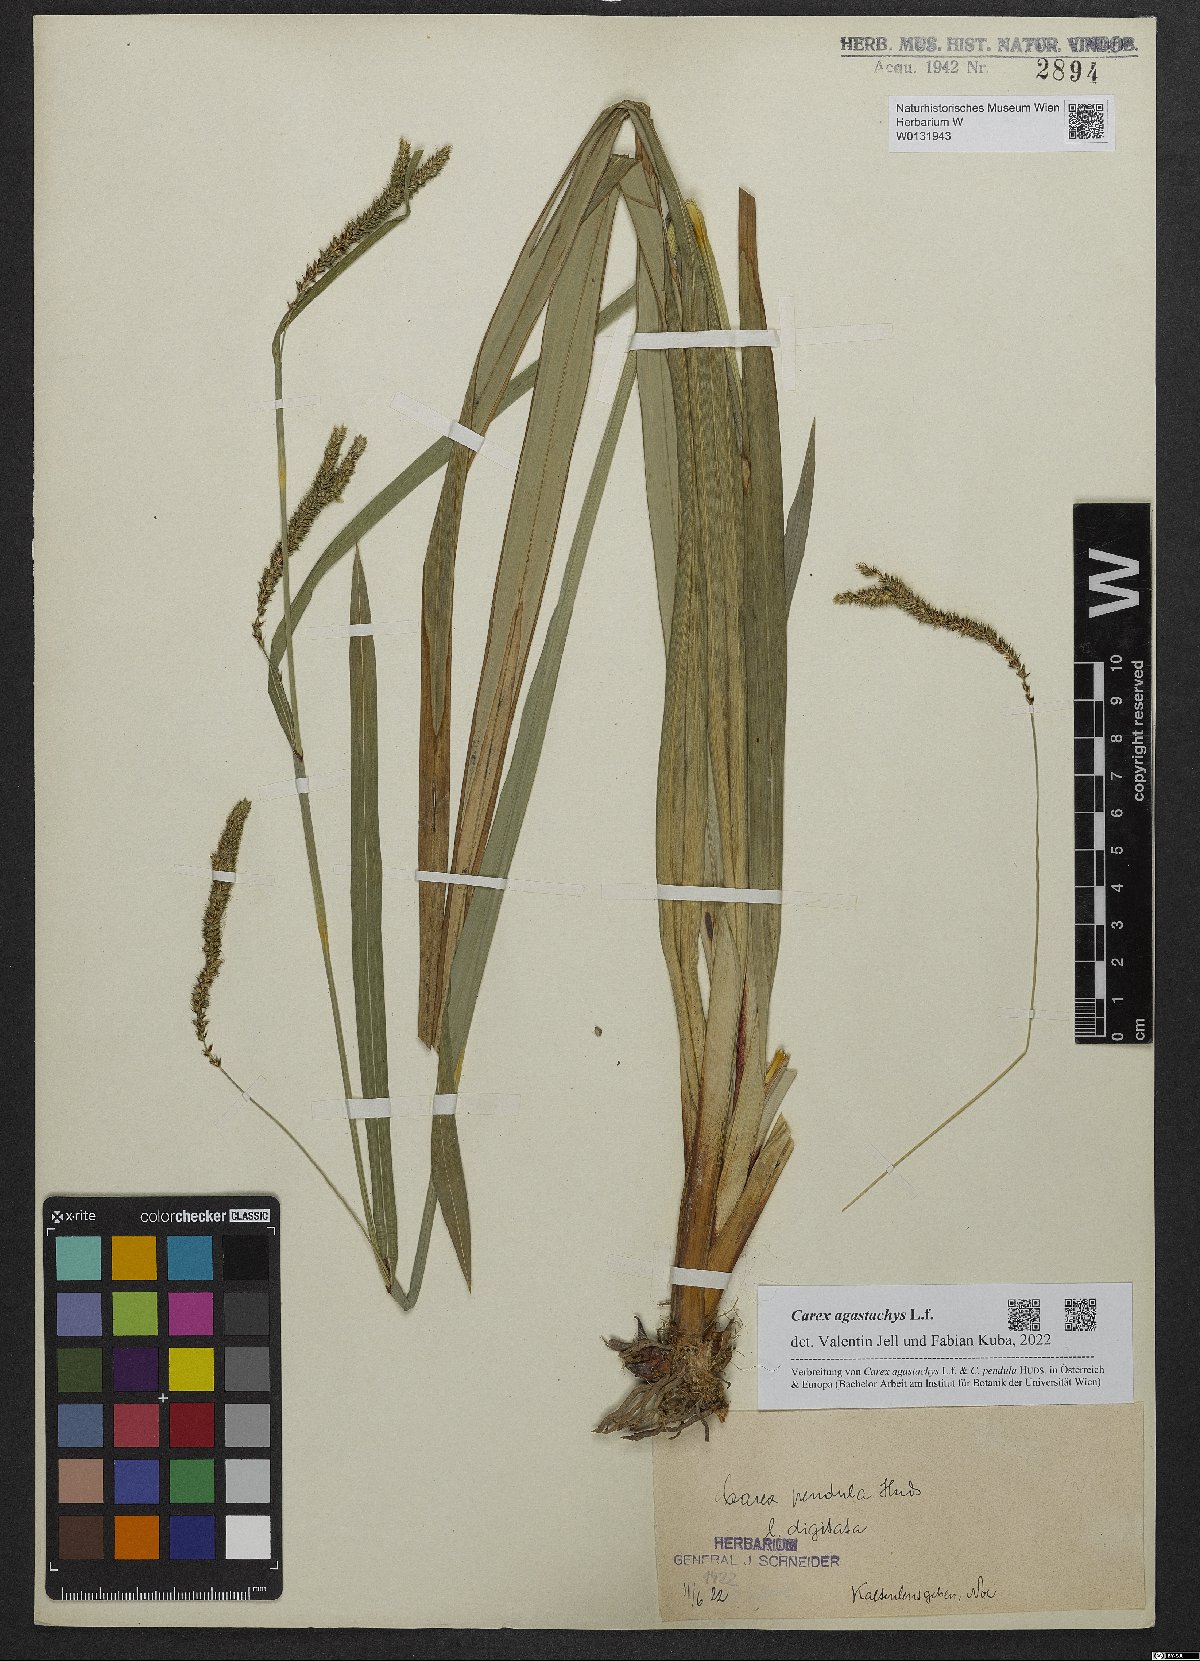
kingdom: Plantae
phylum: Tracheophyta
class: Liliopsida
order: Poales
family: Cyperaceae
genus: Carex
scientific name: Carex agastachys
